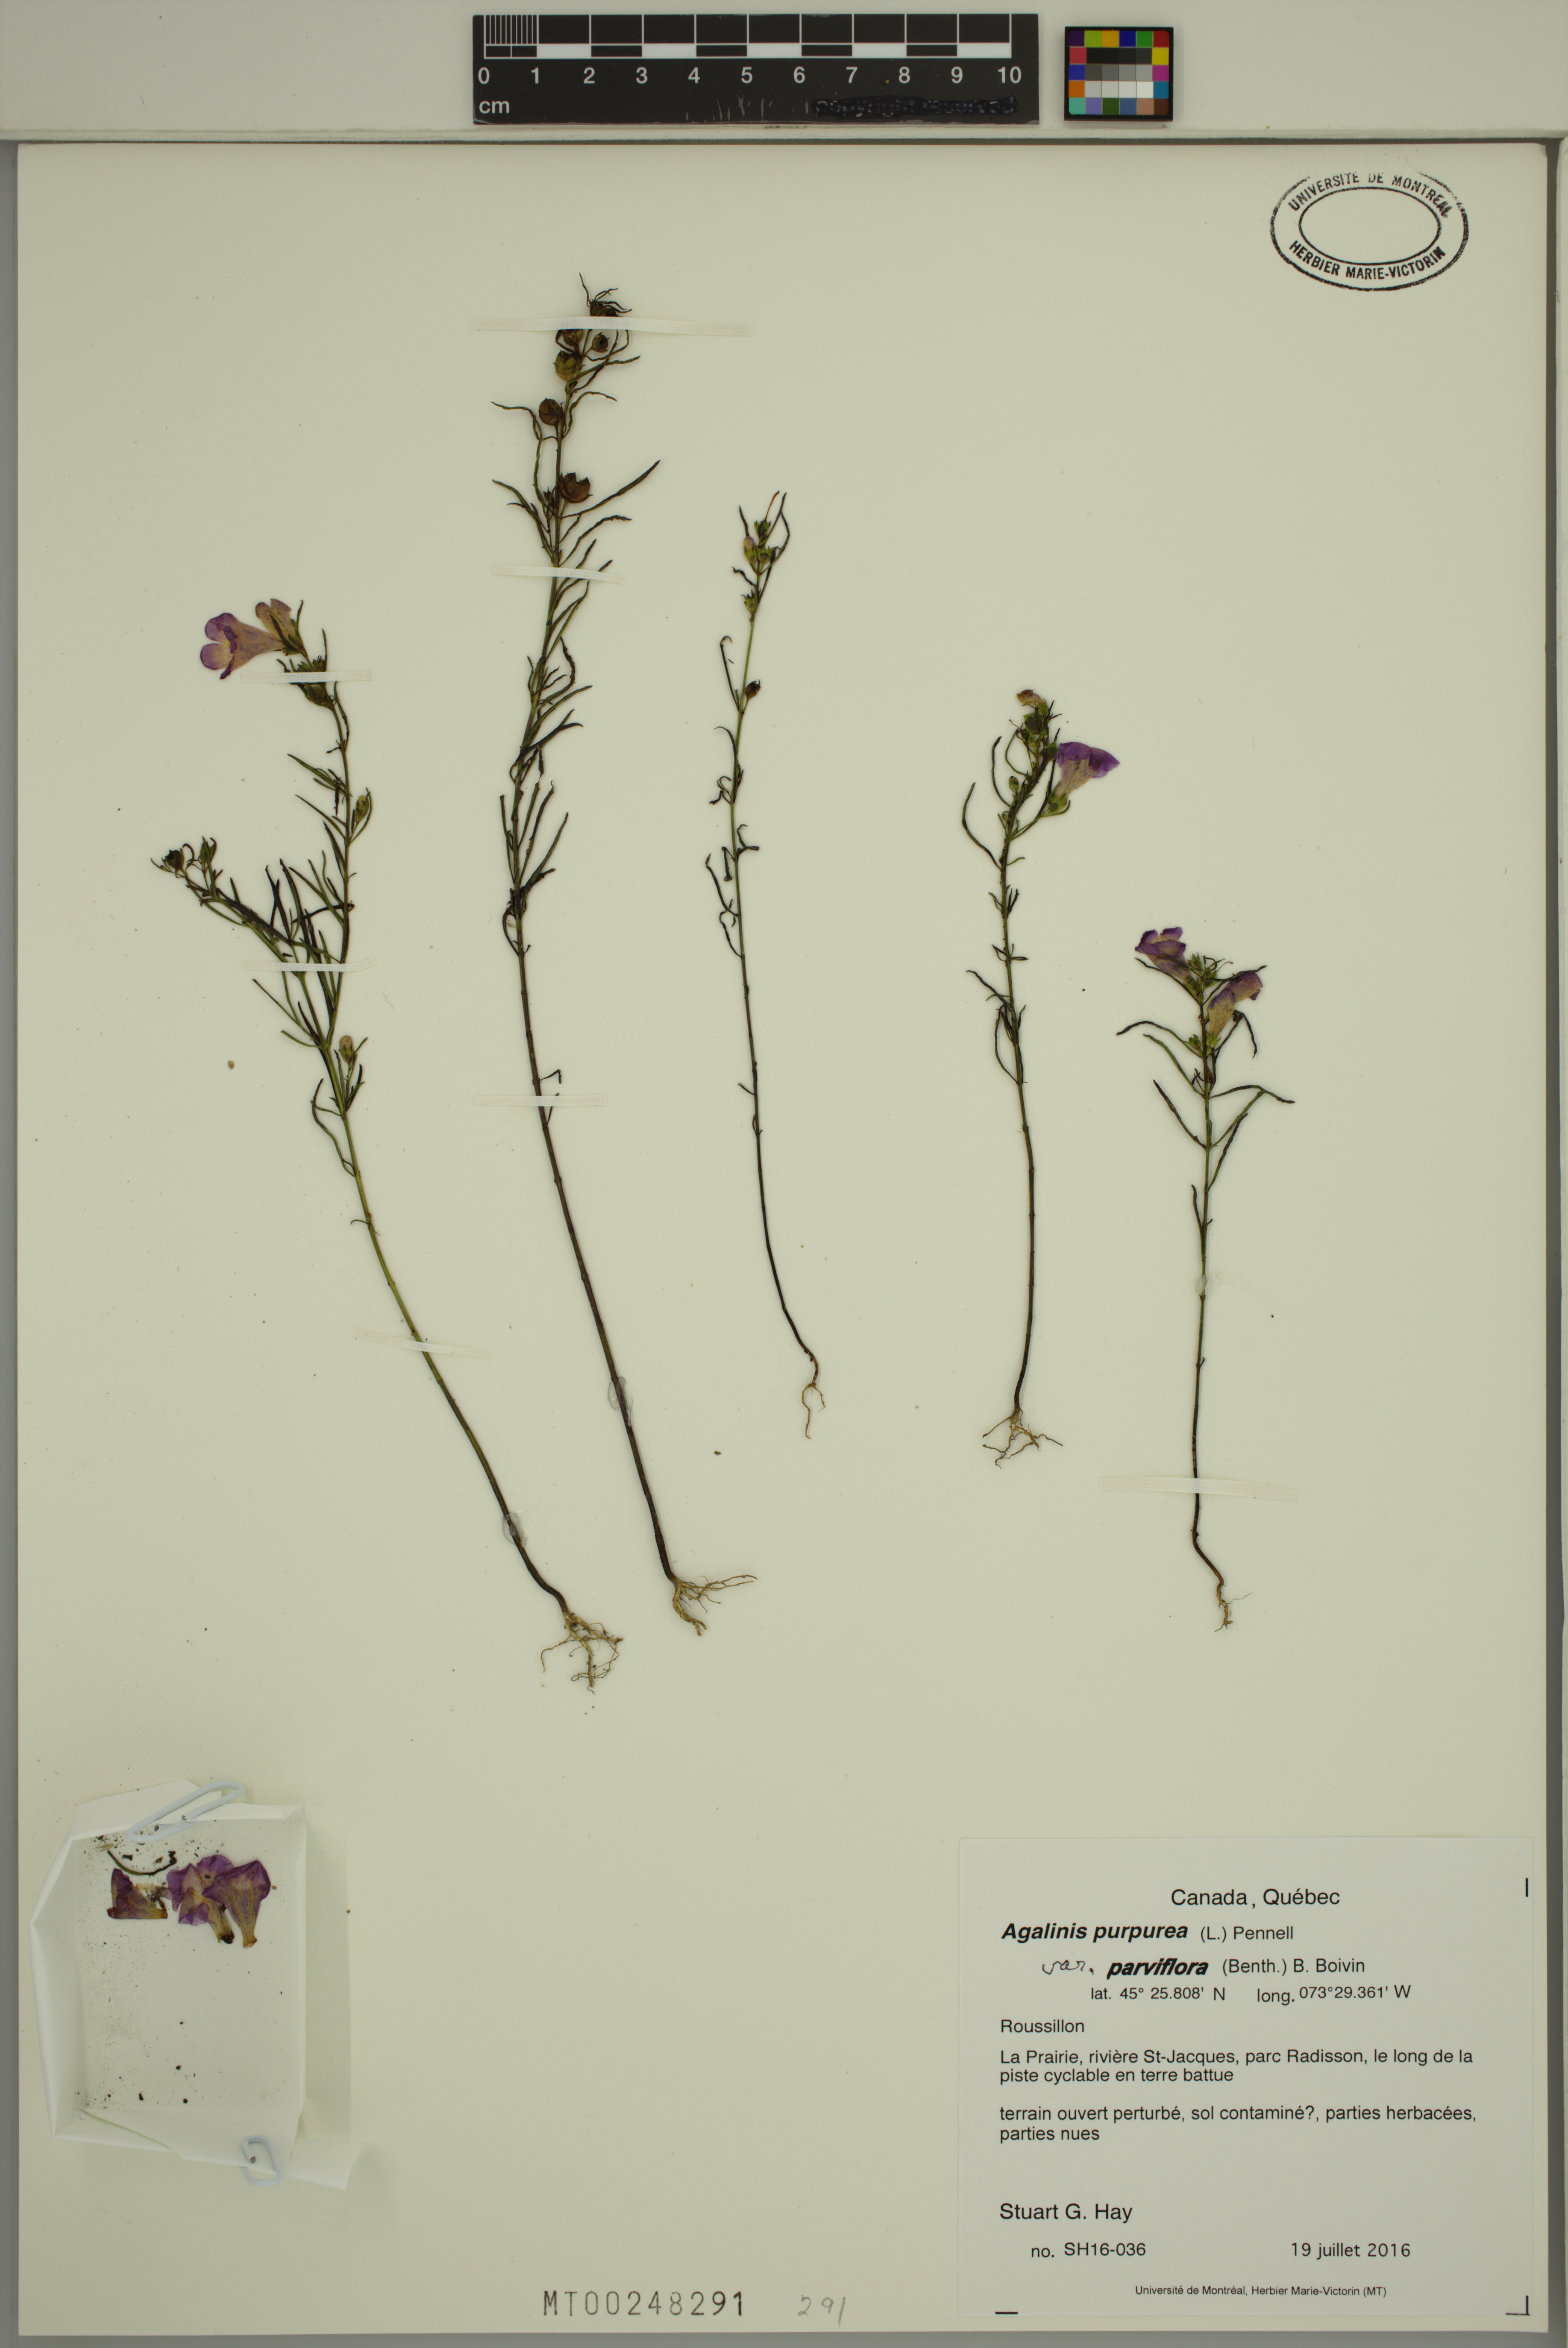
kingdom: Plantae
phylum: Tracheophyta
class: Magnoliopsida
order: Lamiales
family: Orobanchaceae
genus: Agalinis
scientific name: Agalinis purpurea
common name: Purple false foxglove
